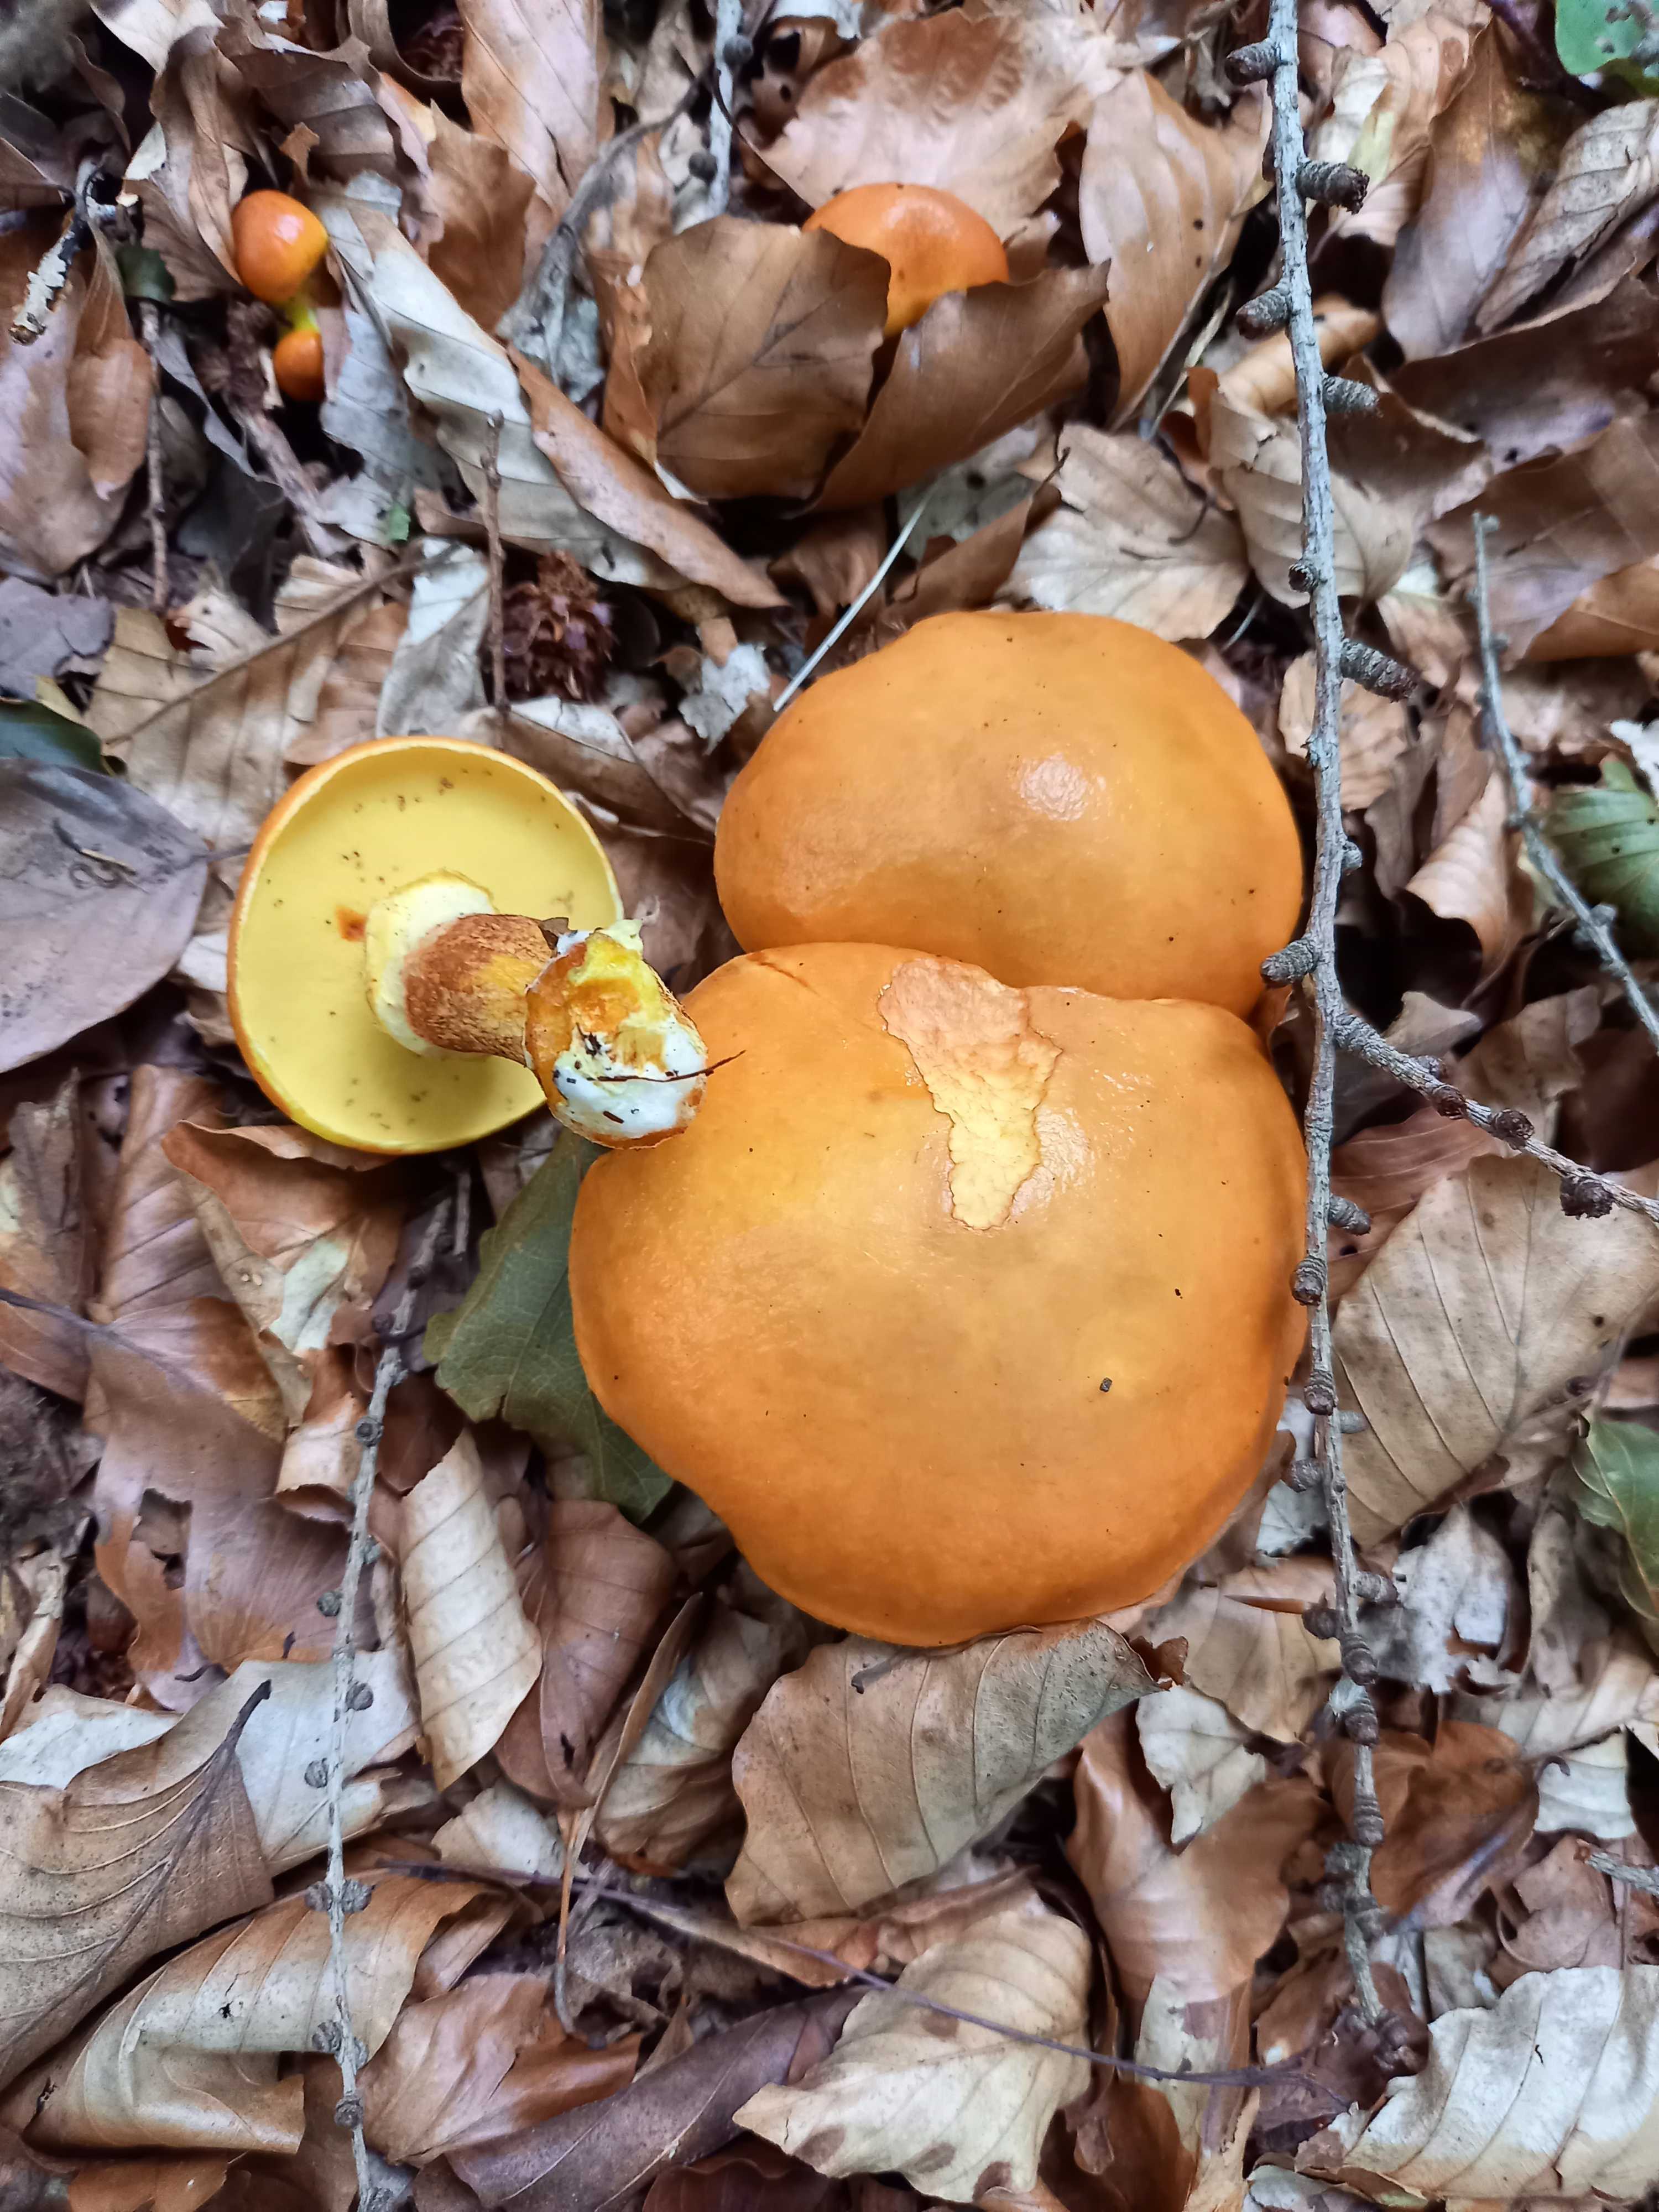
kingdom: Fungi
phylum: Basidiomycota
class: Agaricomycetes
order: Boletales
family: Suillaceae
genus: Suillus
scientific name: Suillus grevillei
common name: lærke-slimrørhat
